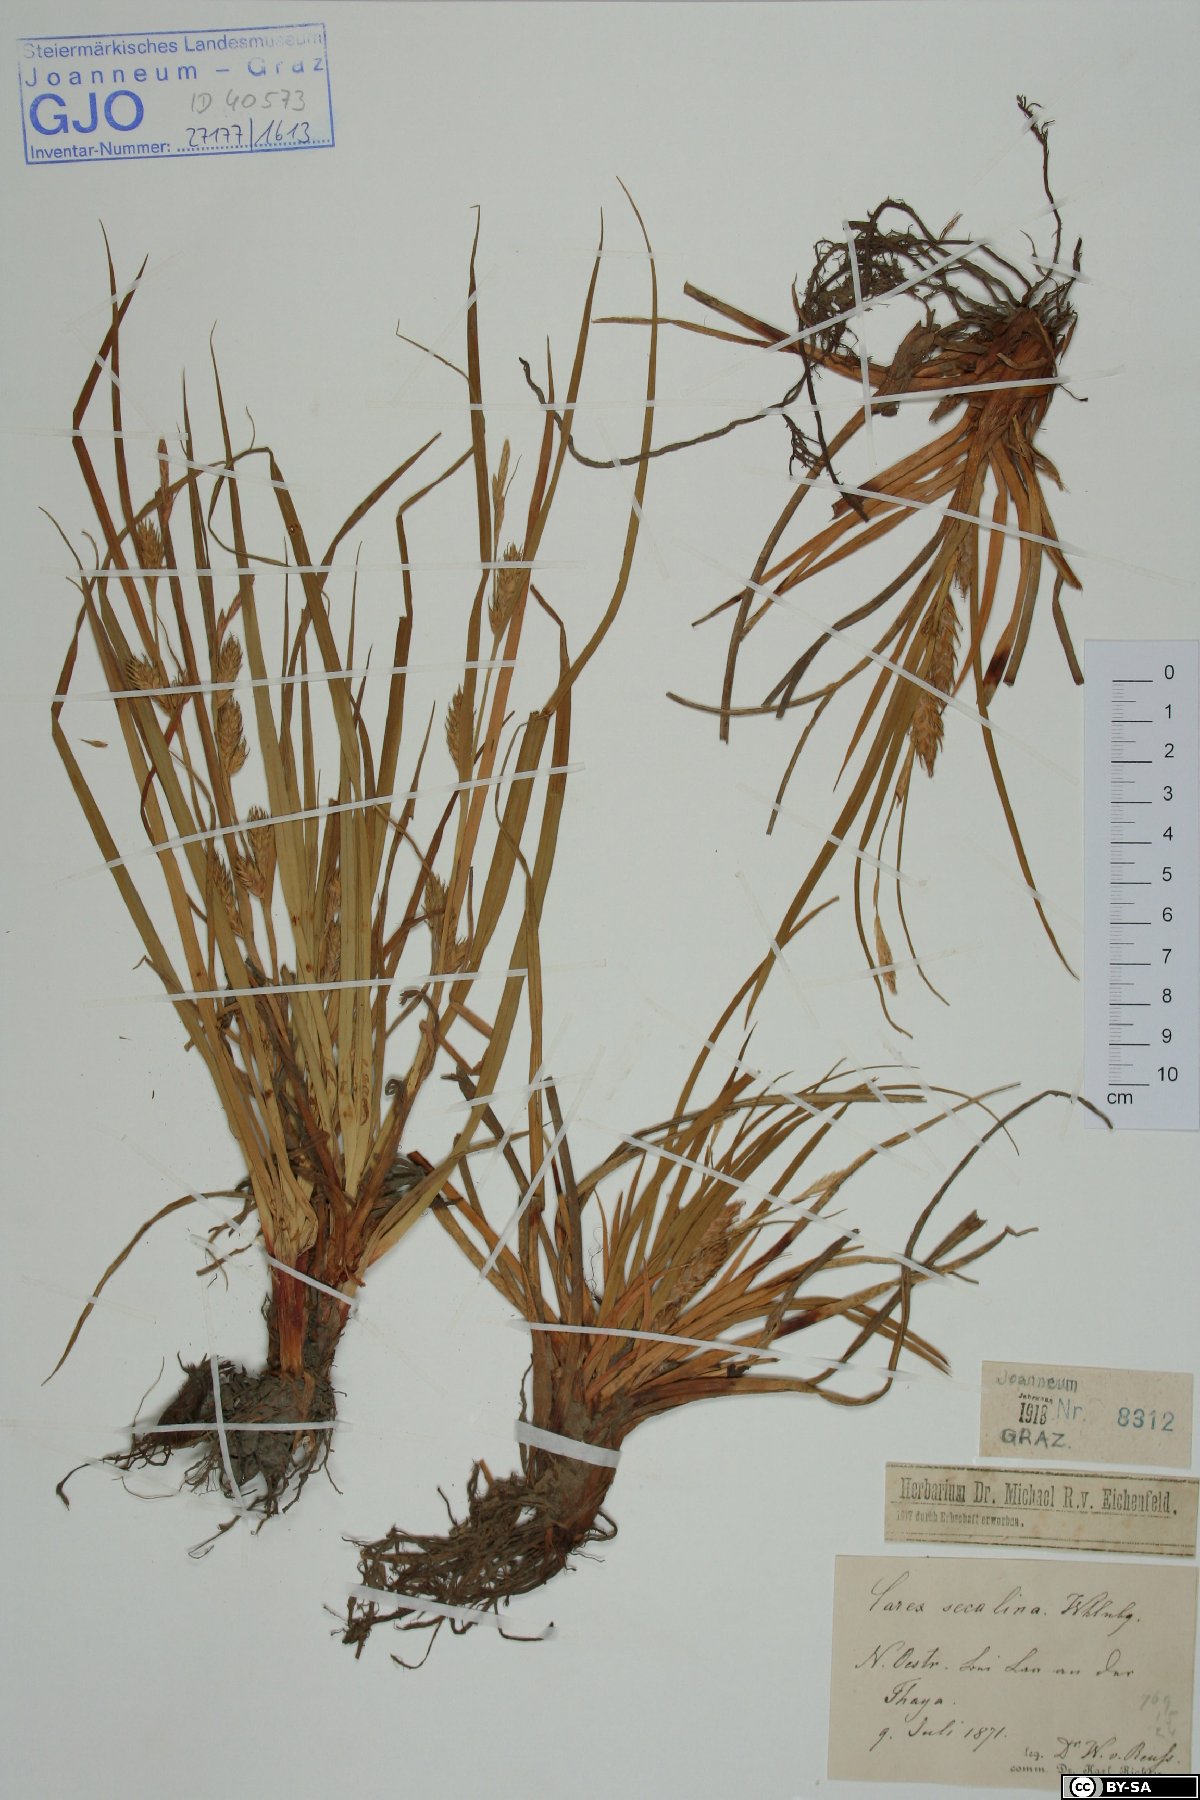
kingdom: Plantae
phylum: Tracheophyta
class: Liliopsida
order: Poales
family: Cyperaceae
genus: Carex
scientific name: Carex secalina
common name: Rye sedge
